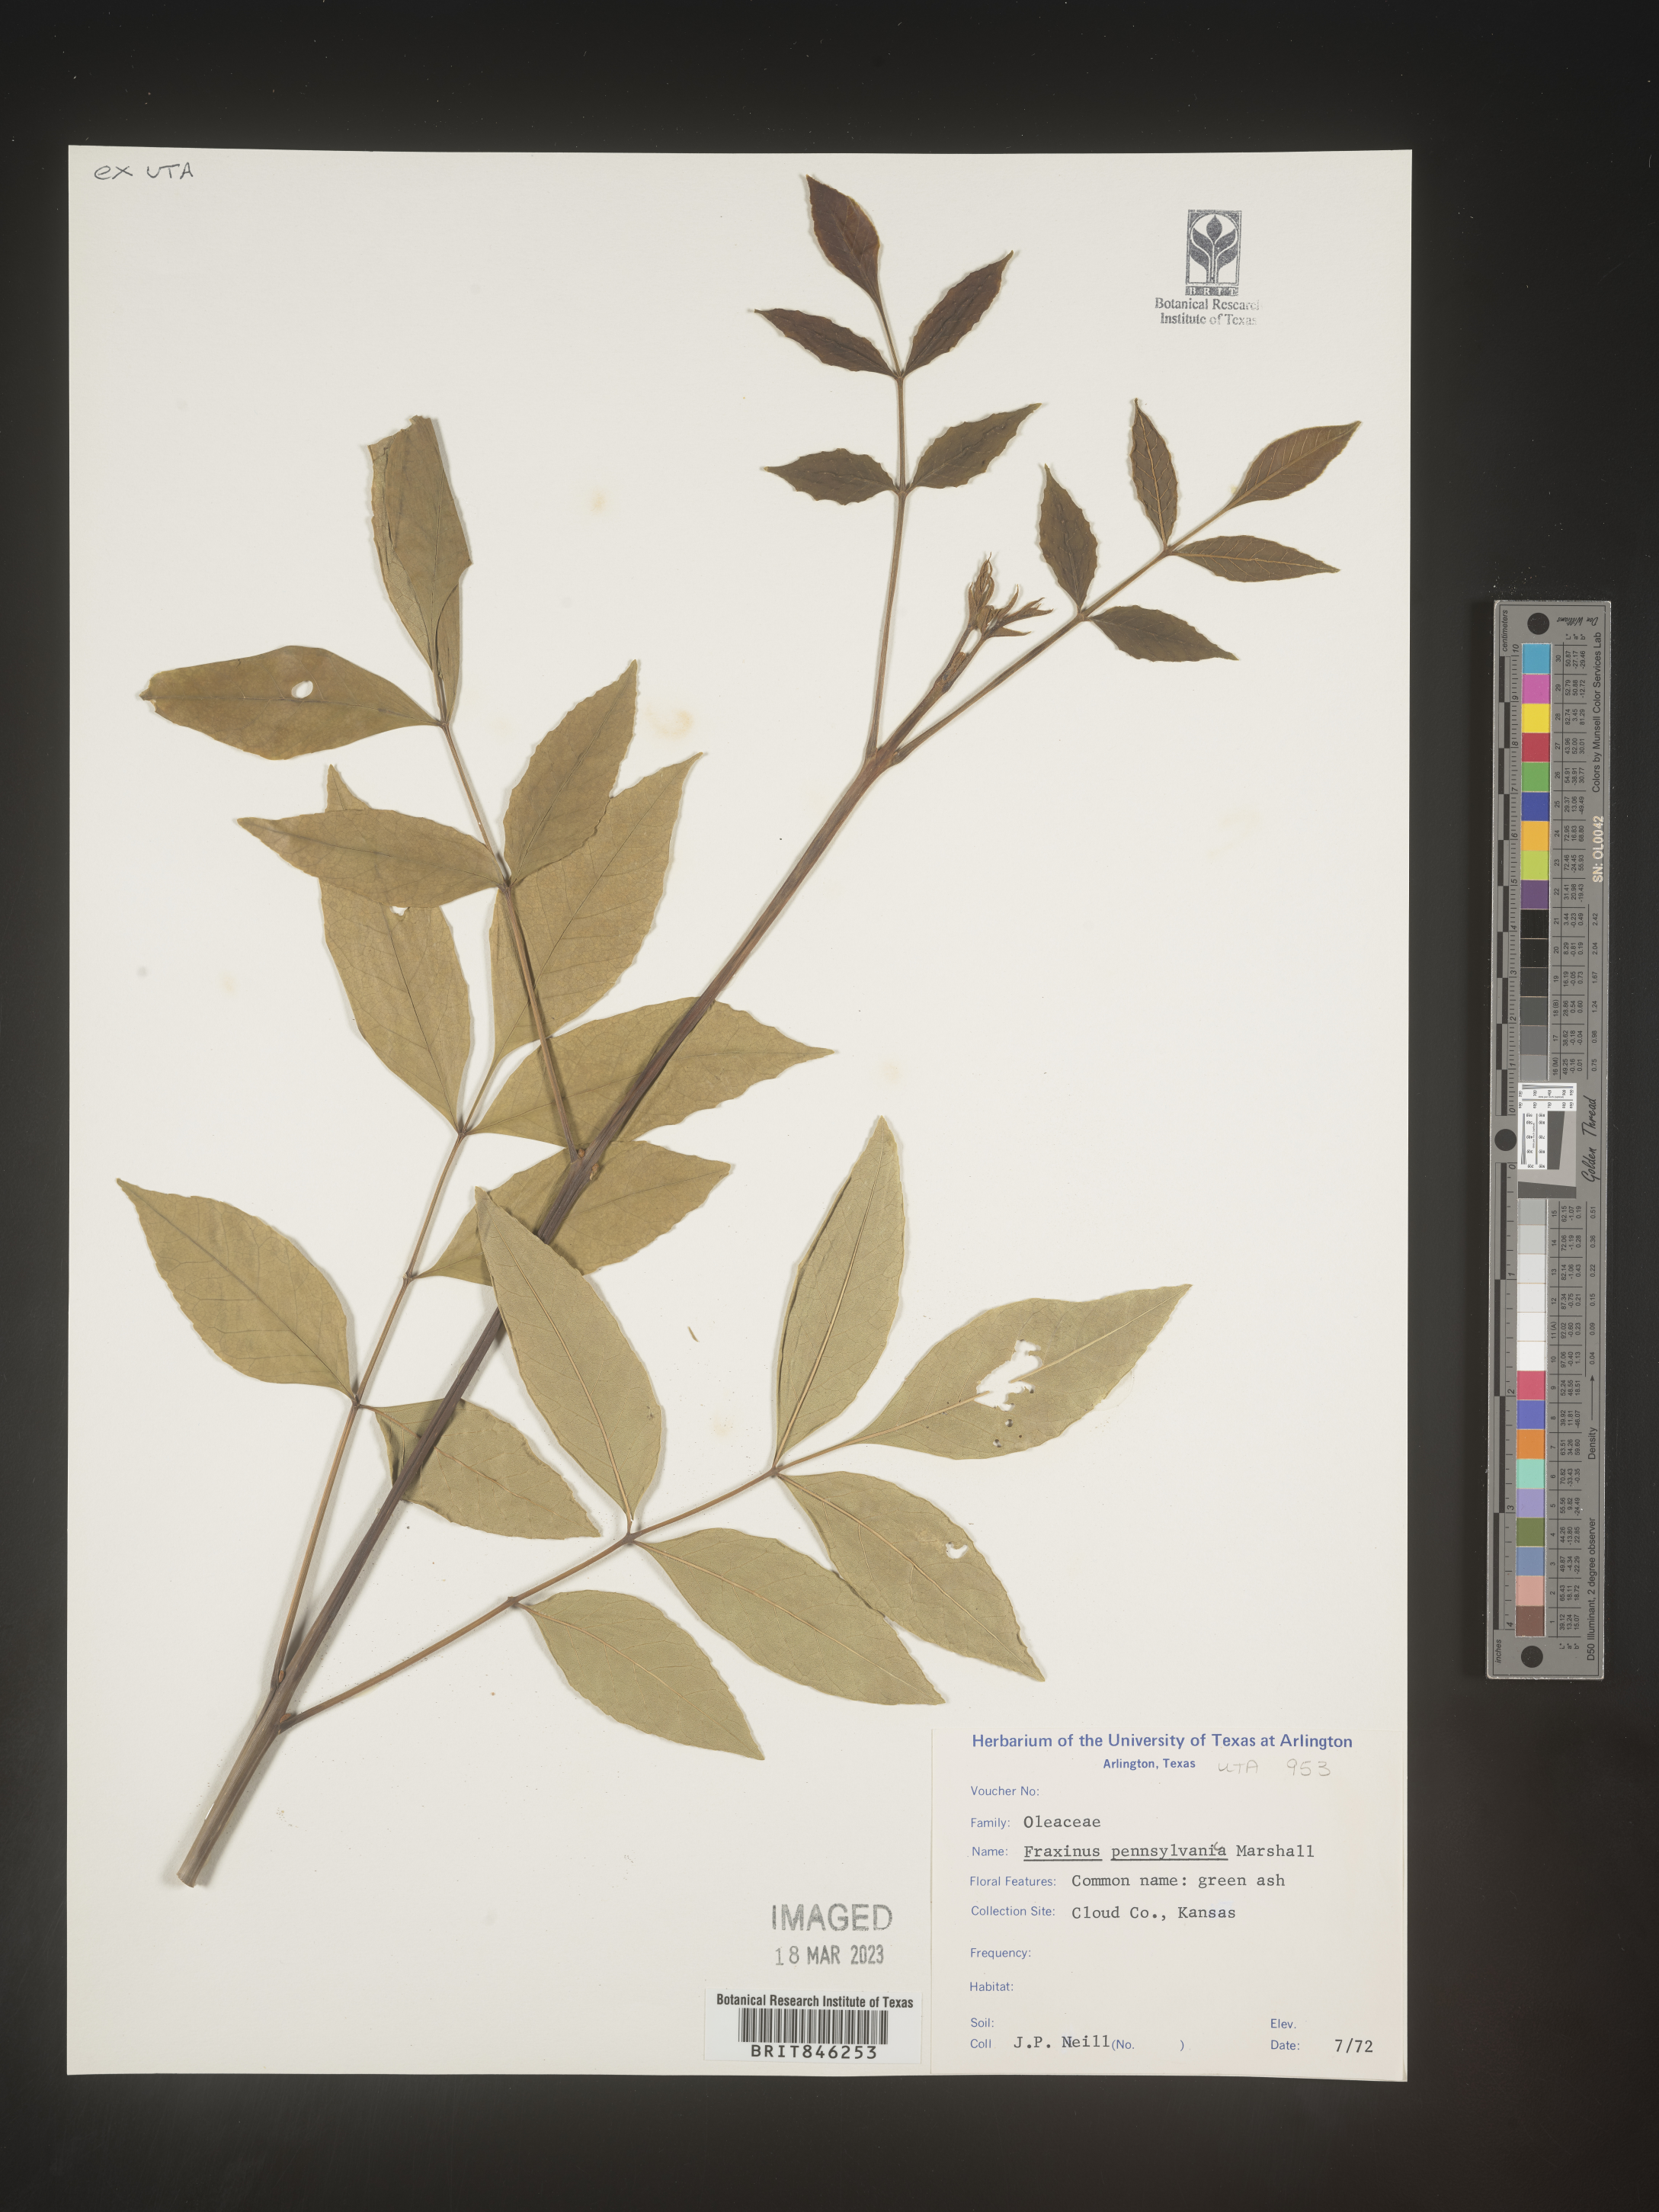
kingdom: Plantae
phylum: Tracheophyta
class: Magnoliopsida
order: Lamiales
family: Oleaceae
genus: Fraxinus
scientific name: Fraxinus pennsylvanica
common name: Green ash
